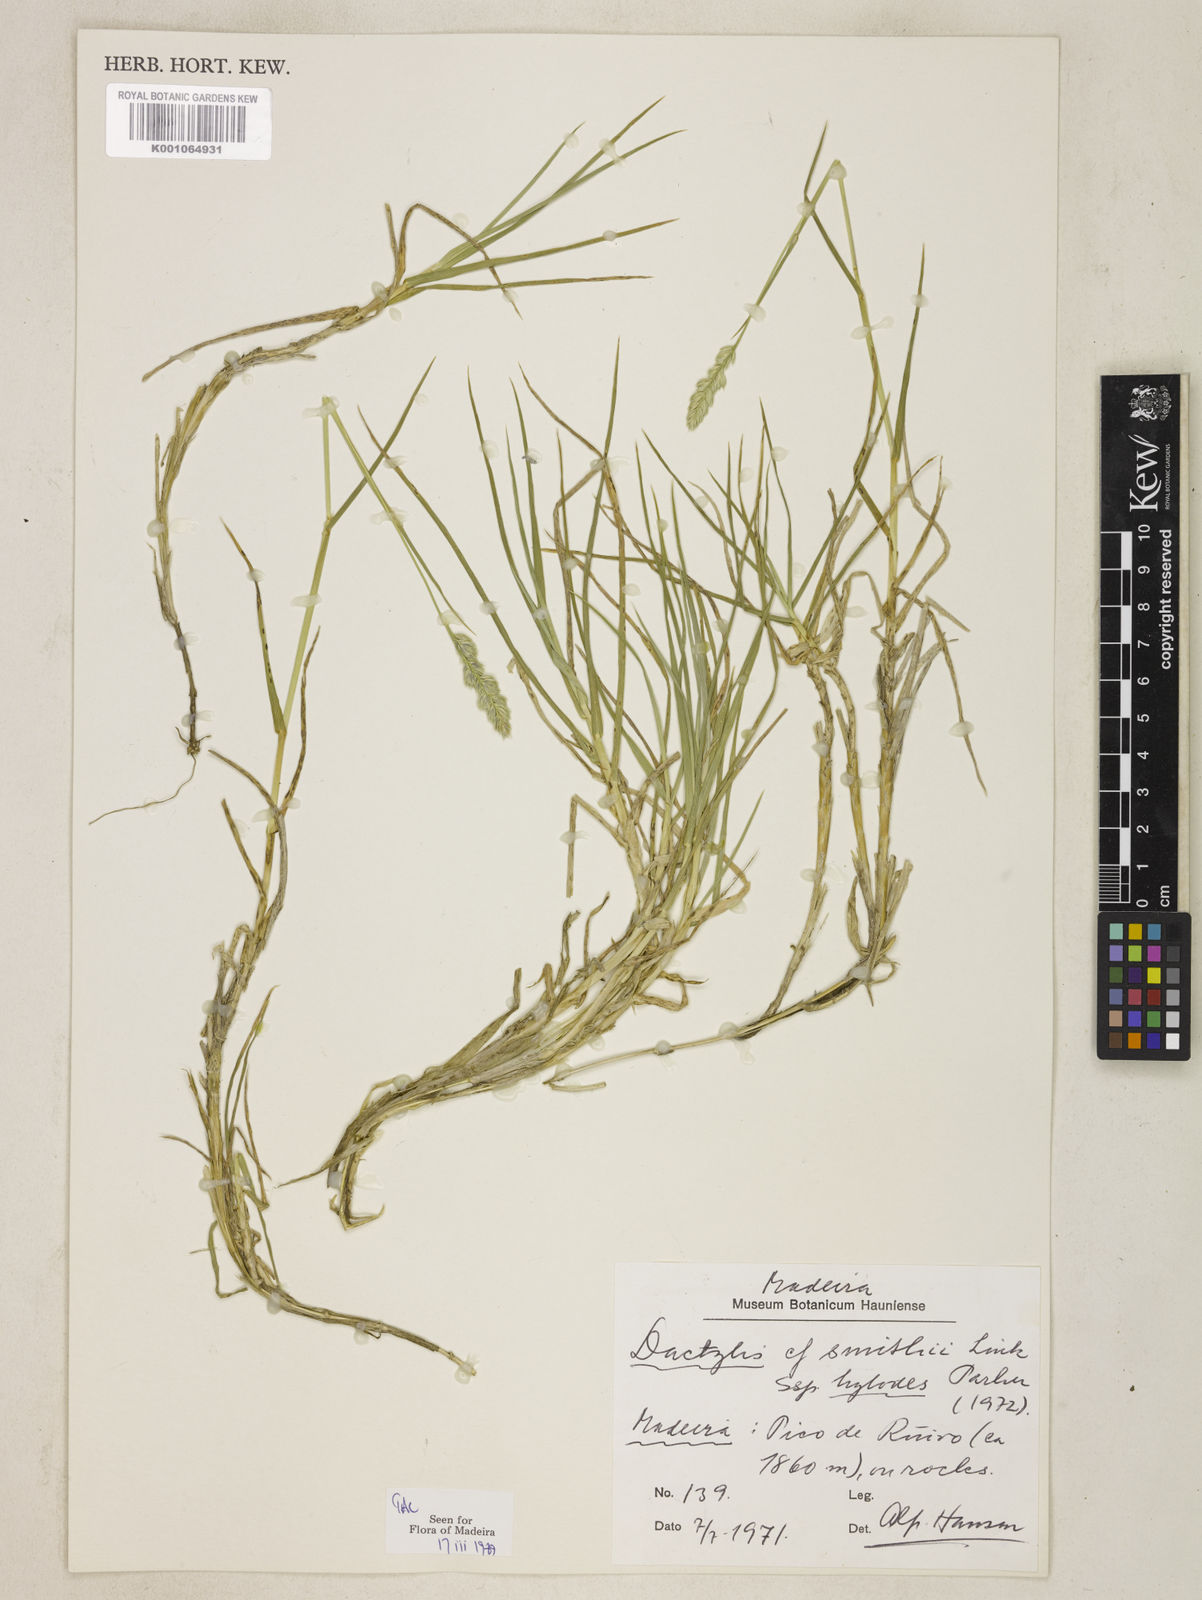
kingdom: Plantae
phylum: Tracheophyta
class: Liliopsida
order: Poales
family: Poaceae
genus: Dactylis
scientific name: Dactylis glomerata
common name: Orchardgrass
